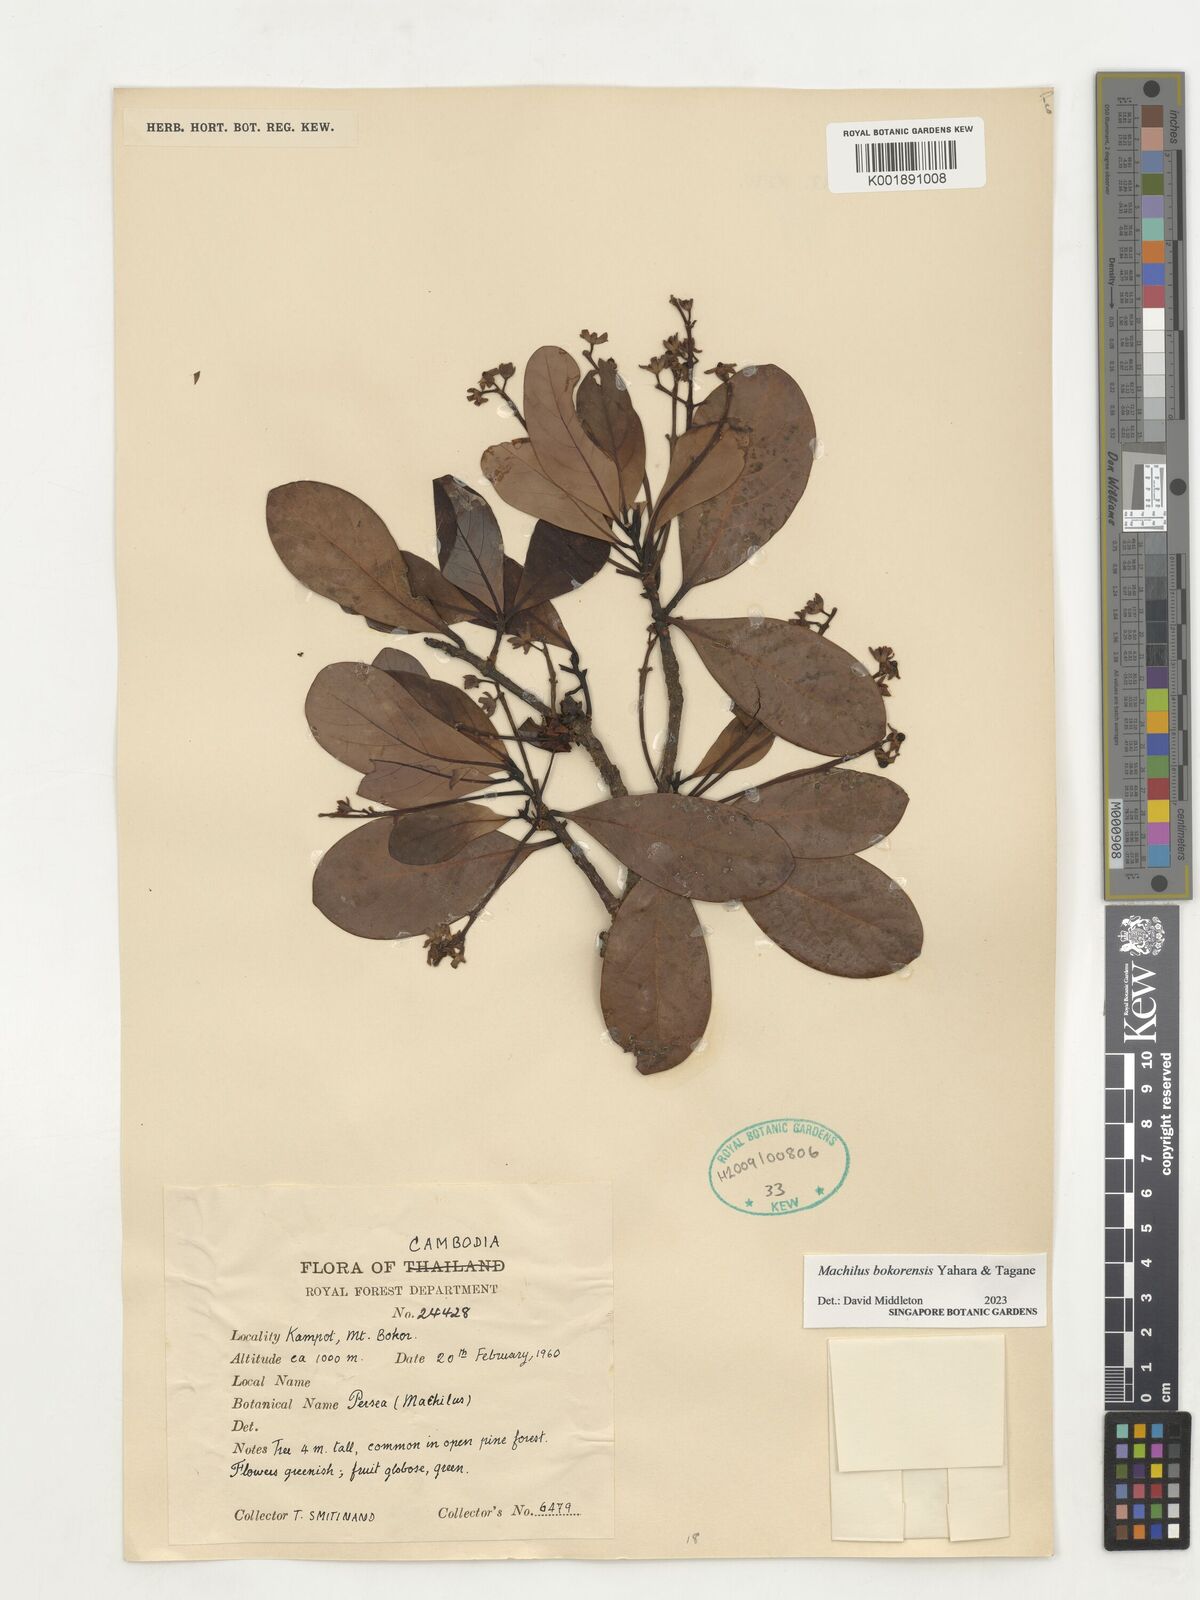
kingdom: Plantae
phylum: Tracheophyta
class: Magnoliopsida
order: Laurales
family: Lauraceae
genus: Machilus
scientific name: Machilus bokorensis
